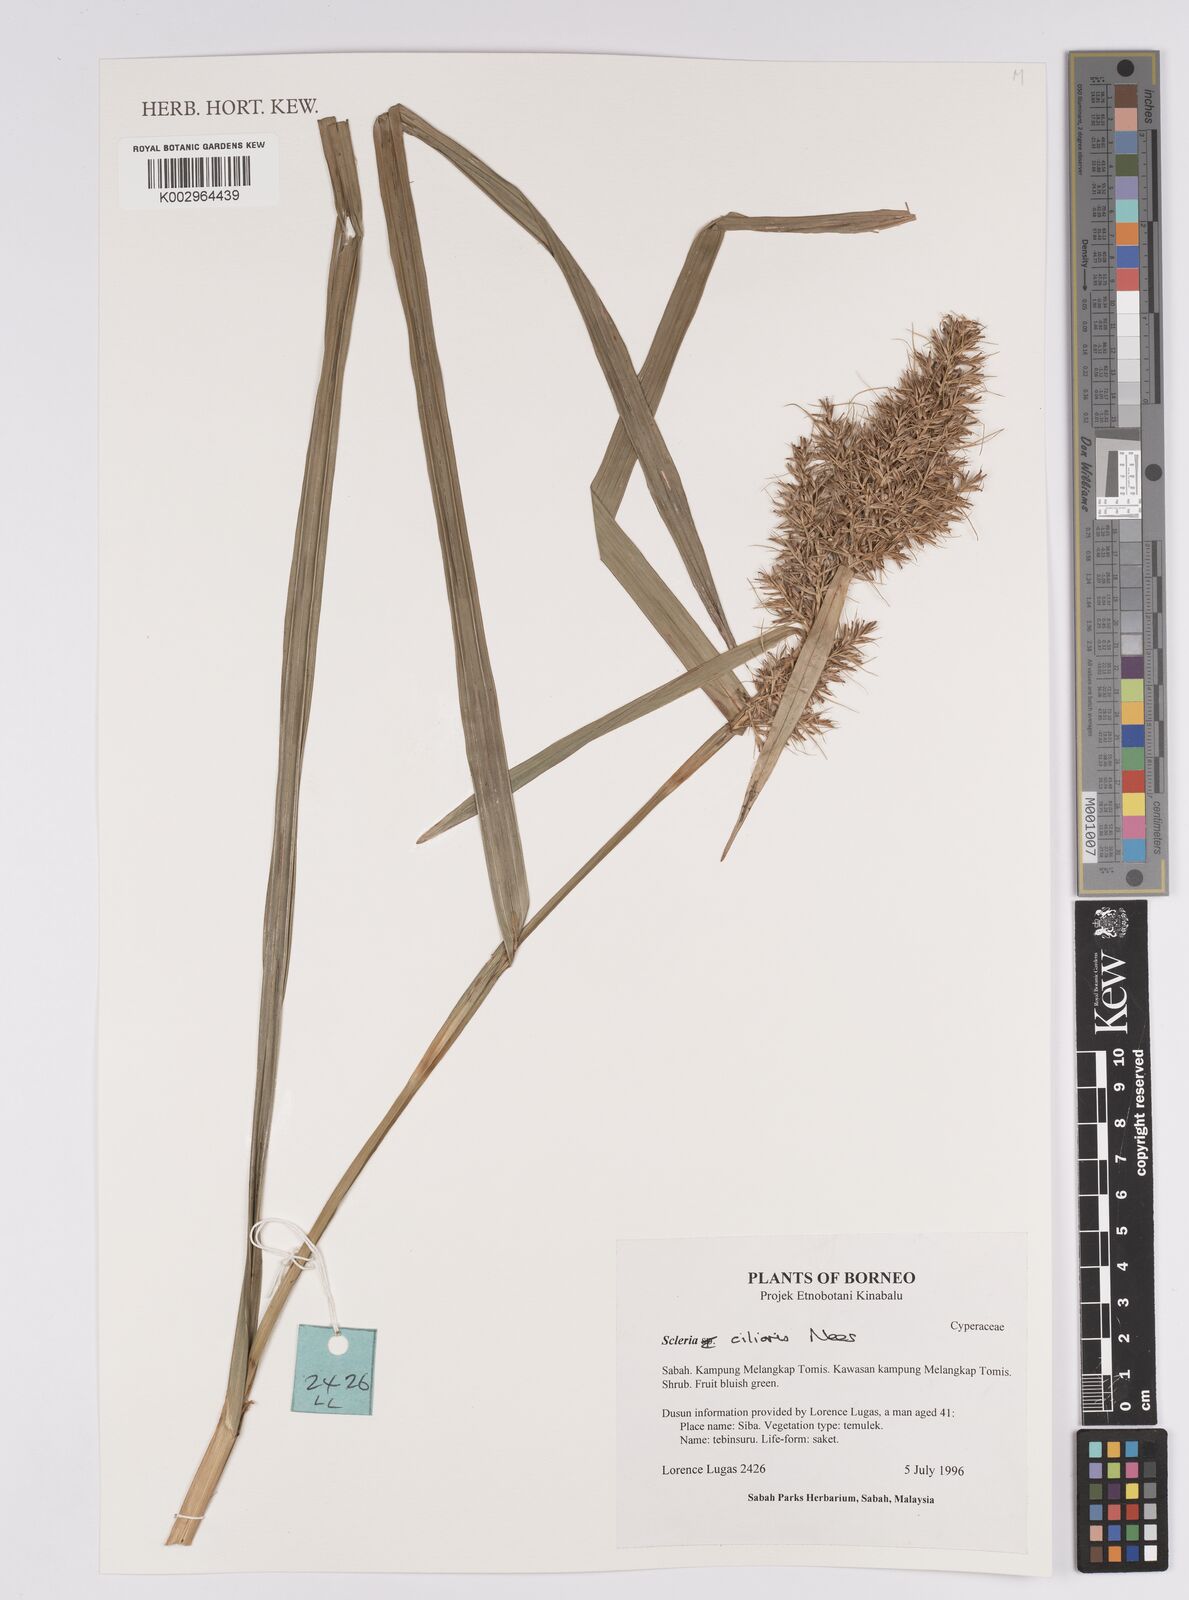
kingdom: Plantae
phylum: Tracheophyta
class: Liliopsida
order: Poales
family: Cyperaceae
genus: Scleria
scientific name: Scleria ciliaris
